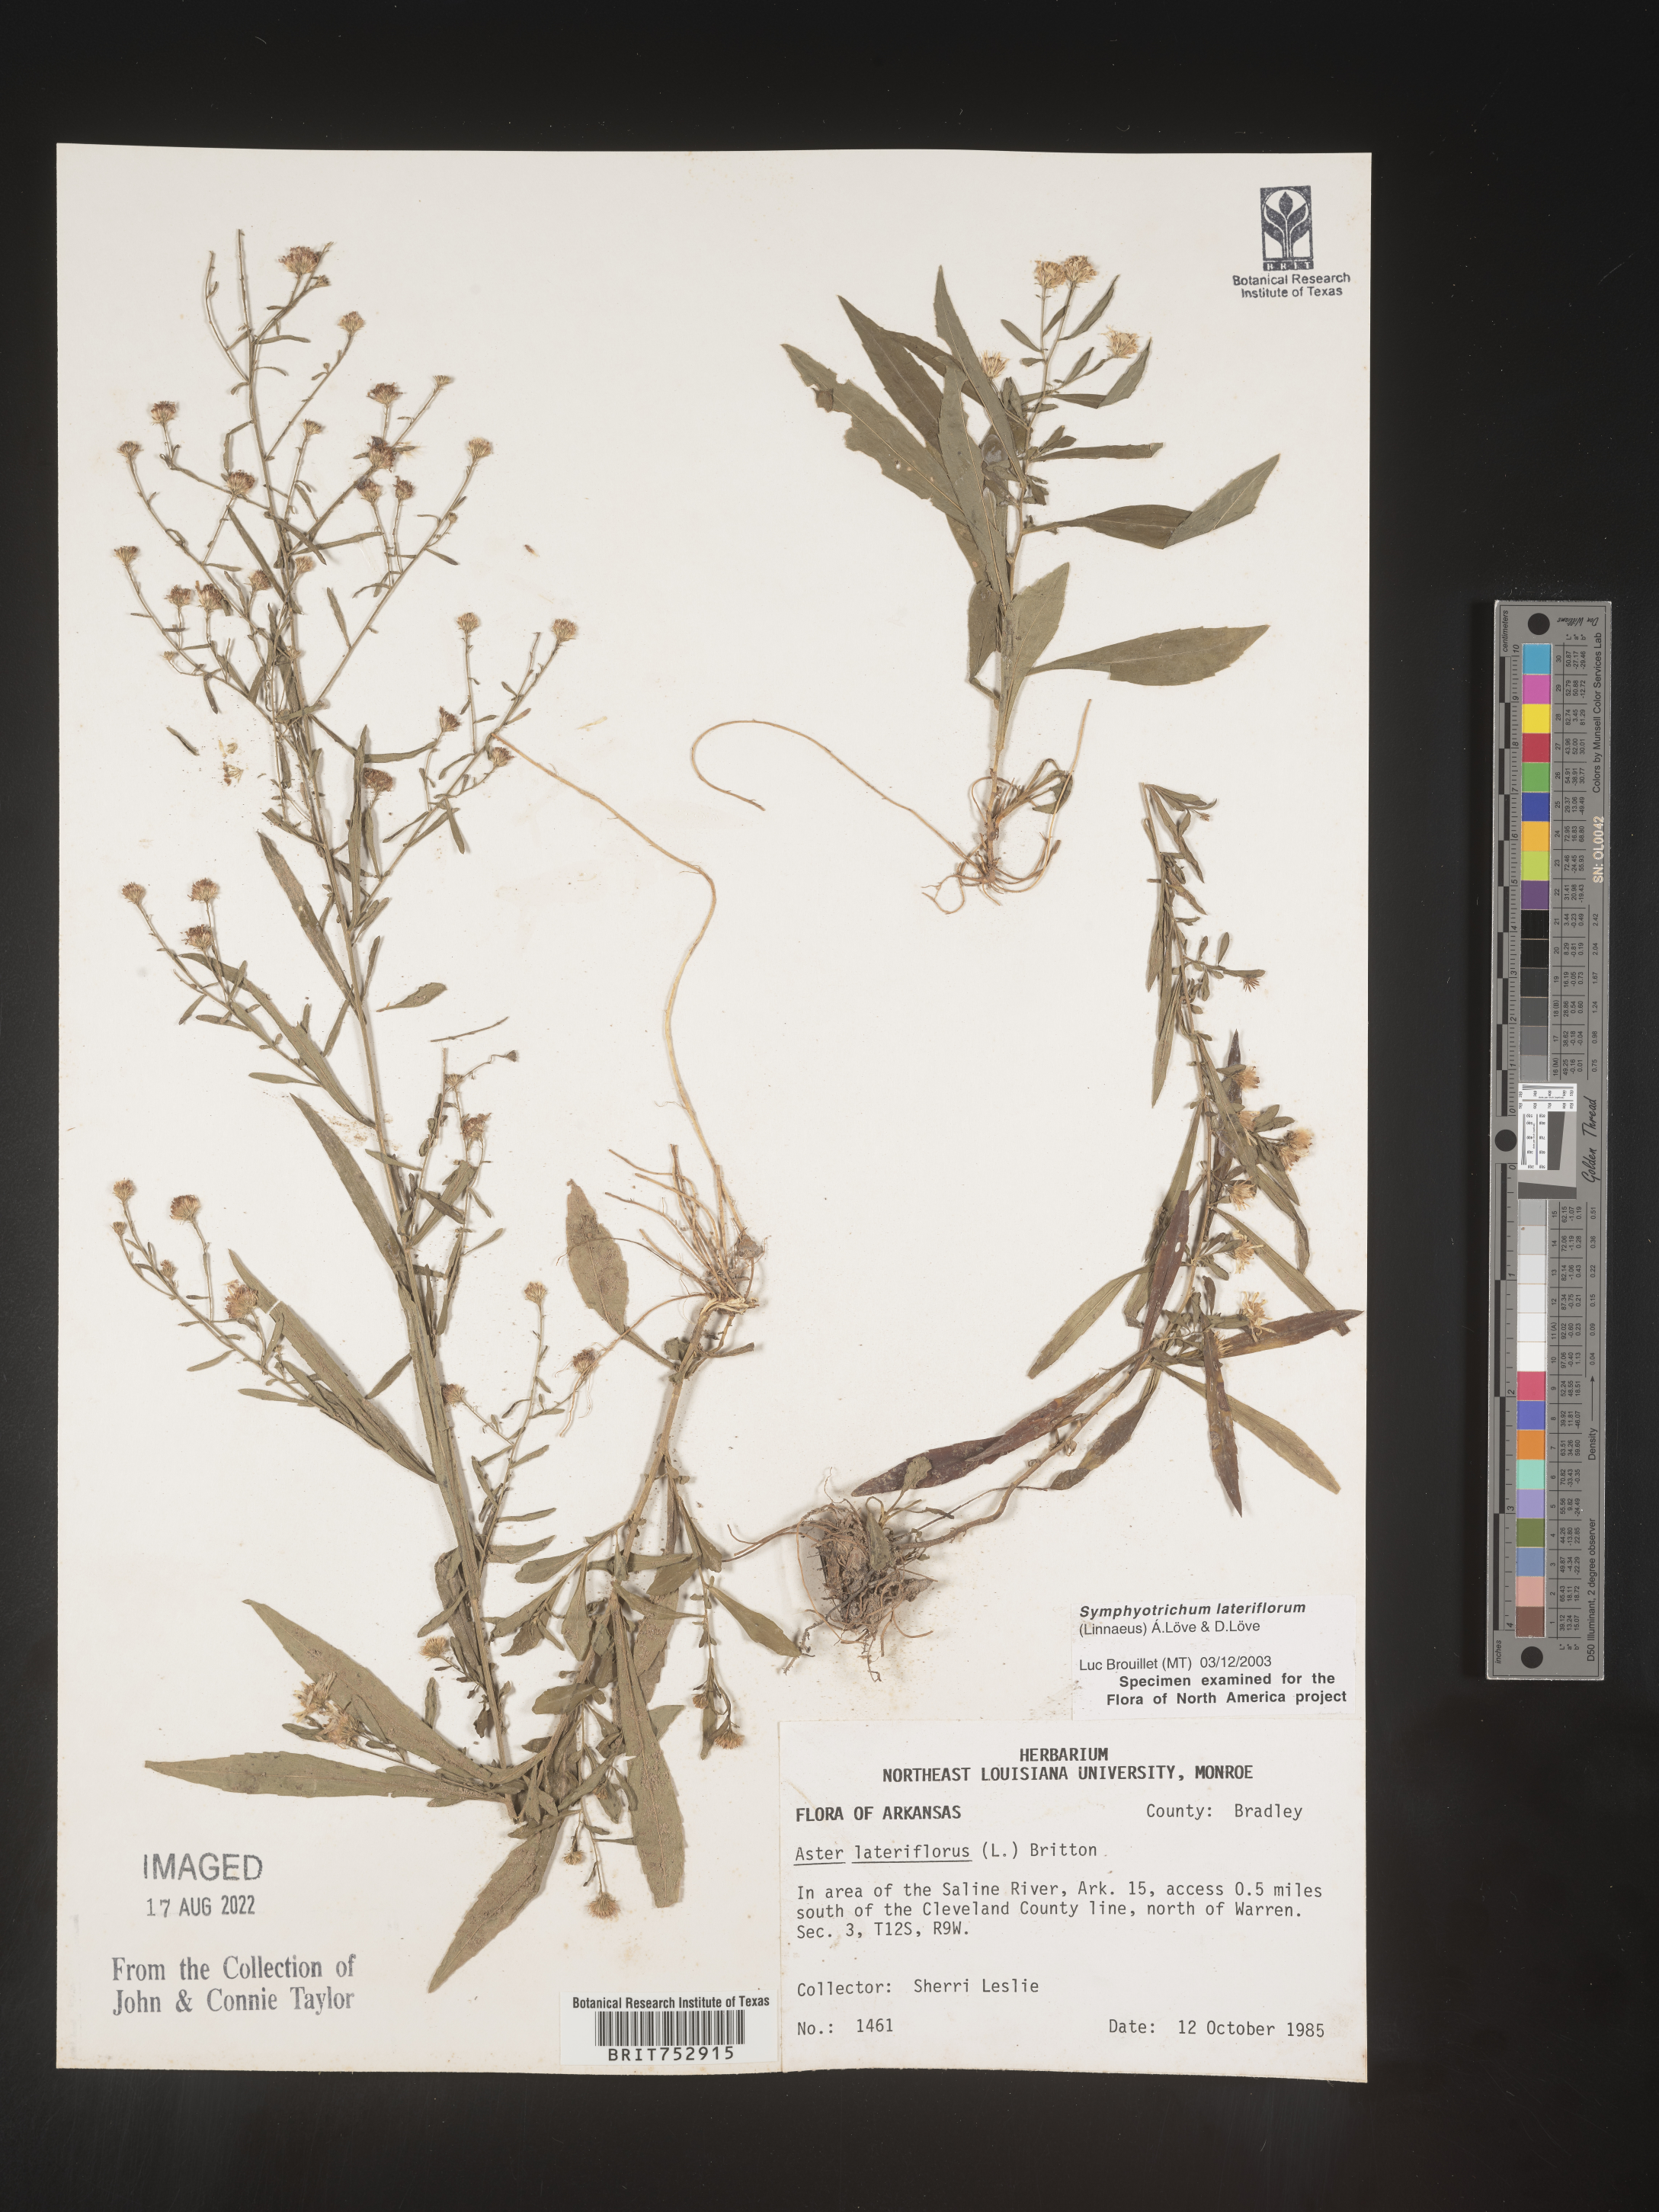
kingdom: Plantae
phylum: Tracheophyta
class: Magnoliopsida
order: Asterales
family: Asteraceae
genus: Symphyotrichum
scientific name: Symphyotrichum lateriflorum
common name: Calico aster
